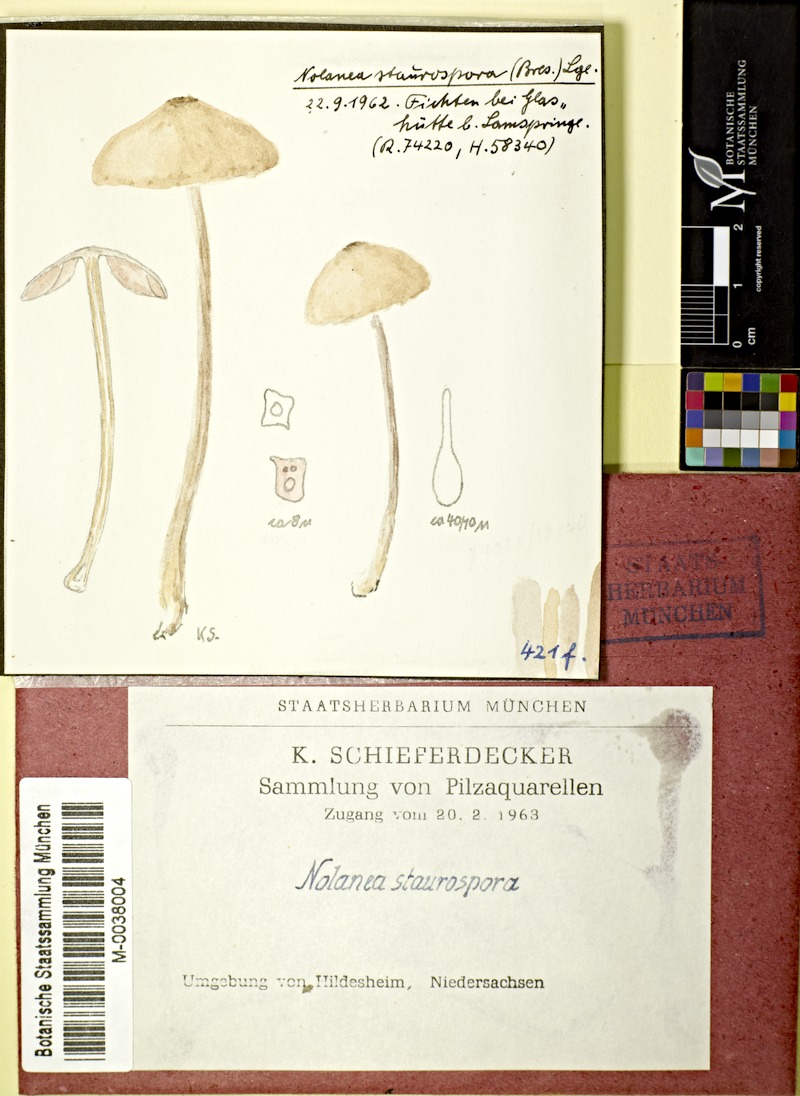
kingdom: Fungi
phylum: Basidiomycota
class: Agaricomycetes
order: Agaricales
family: Entolomataceae
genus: Entoloma
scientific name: Entoloma conferendum
